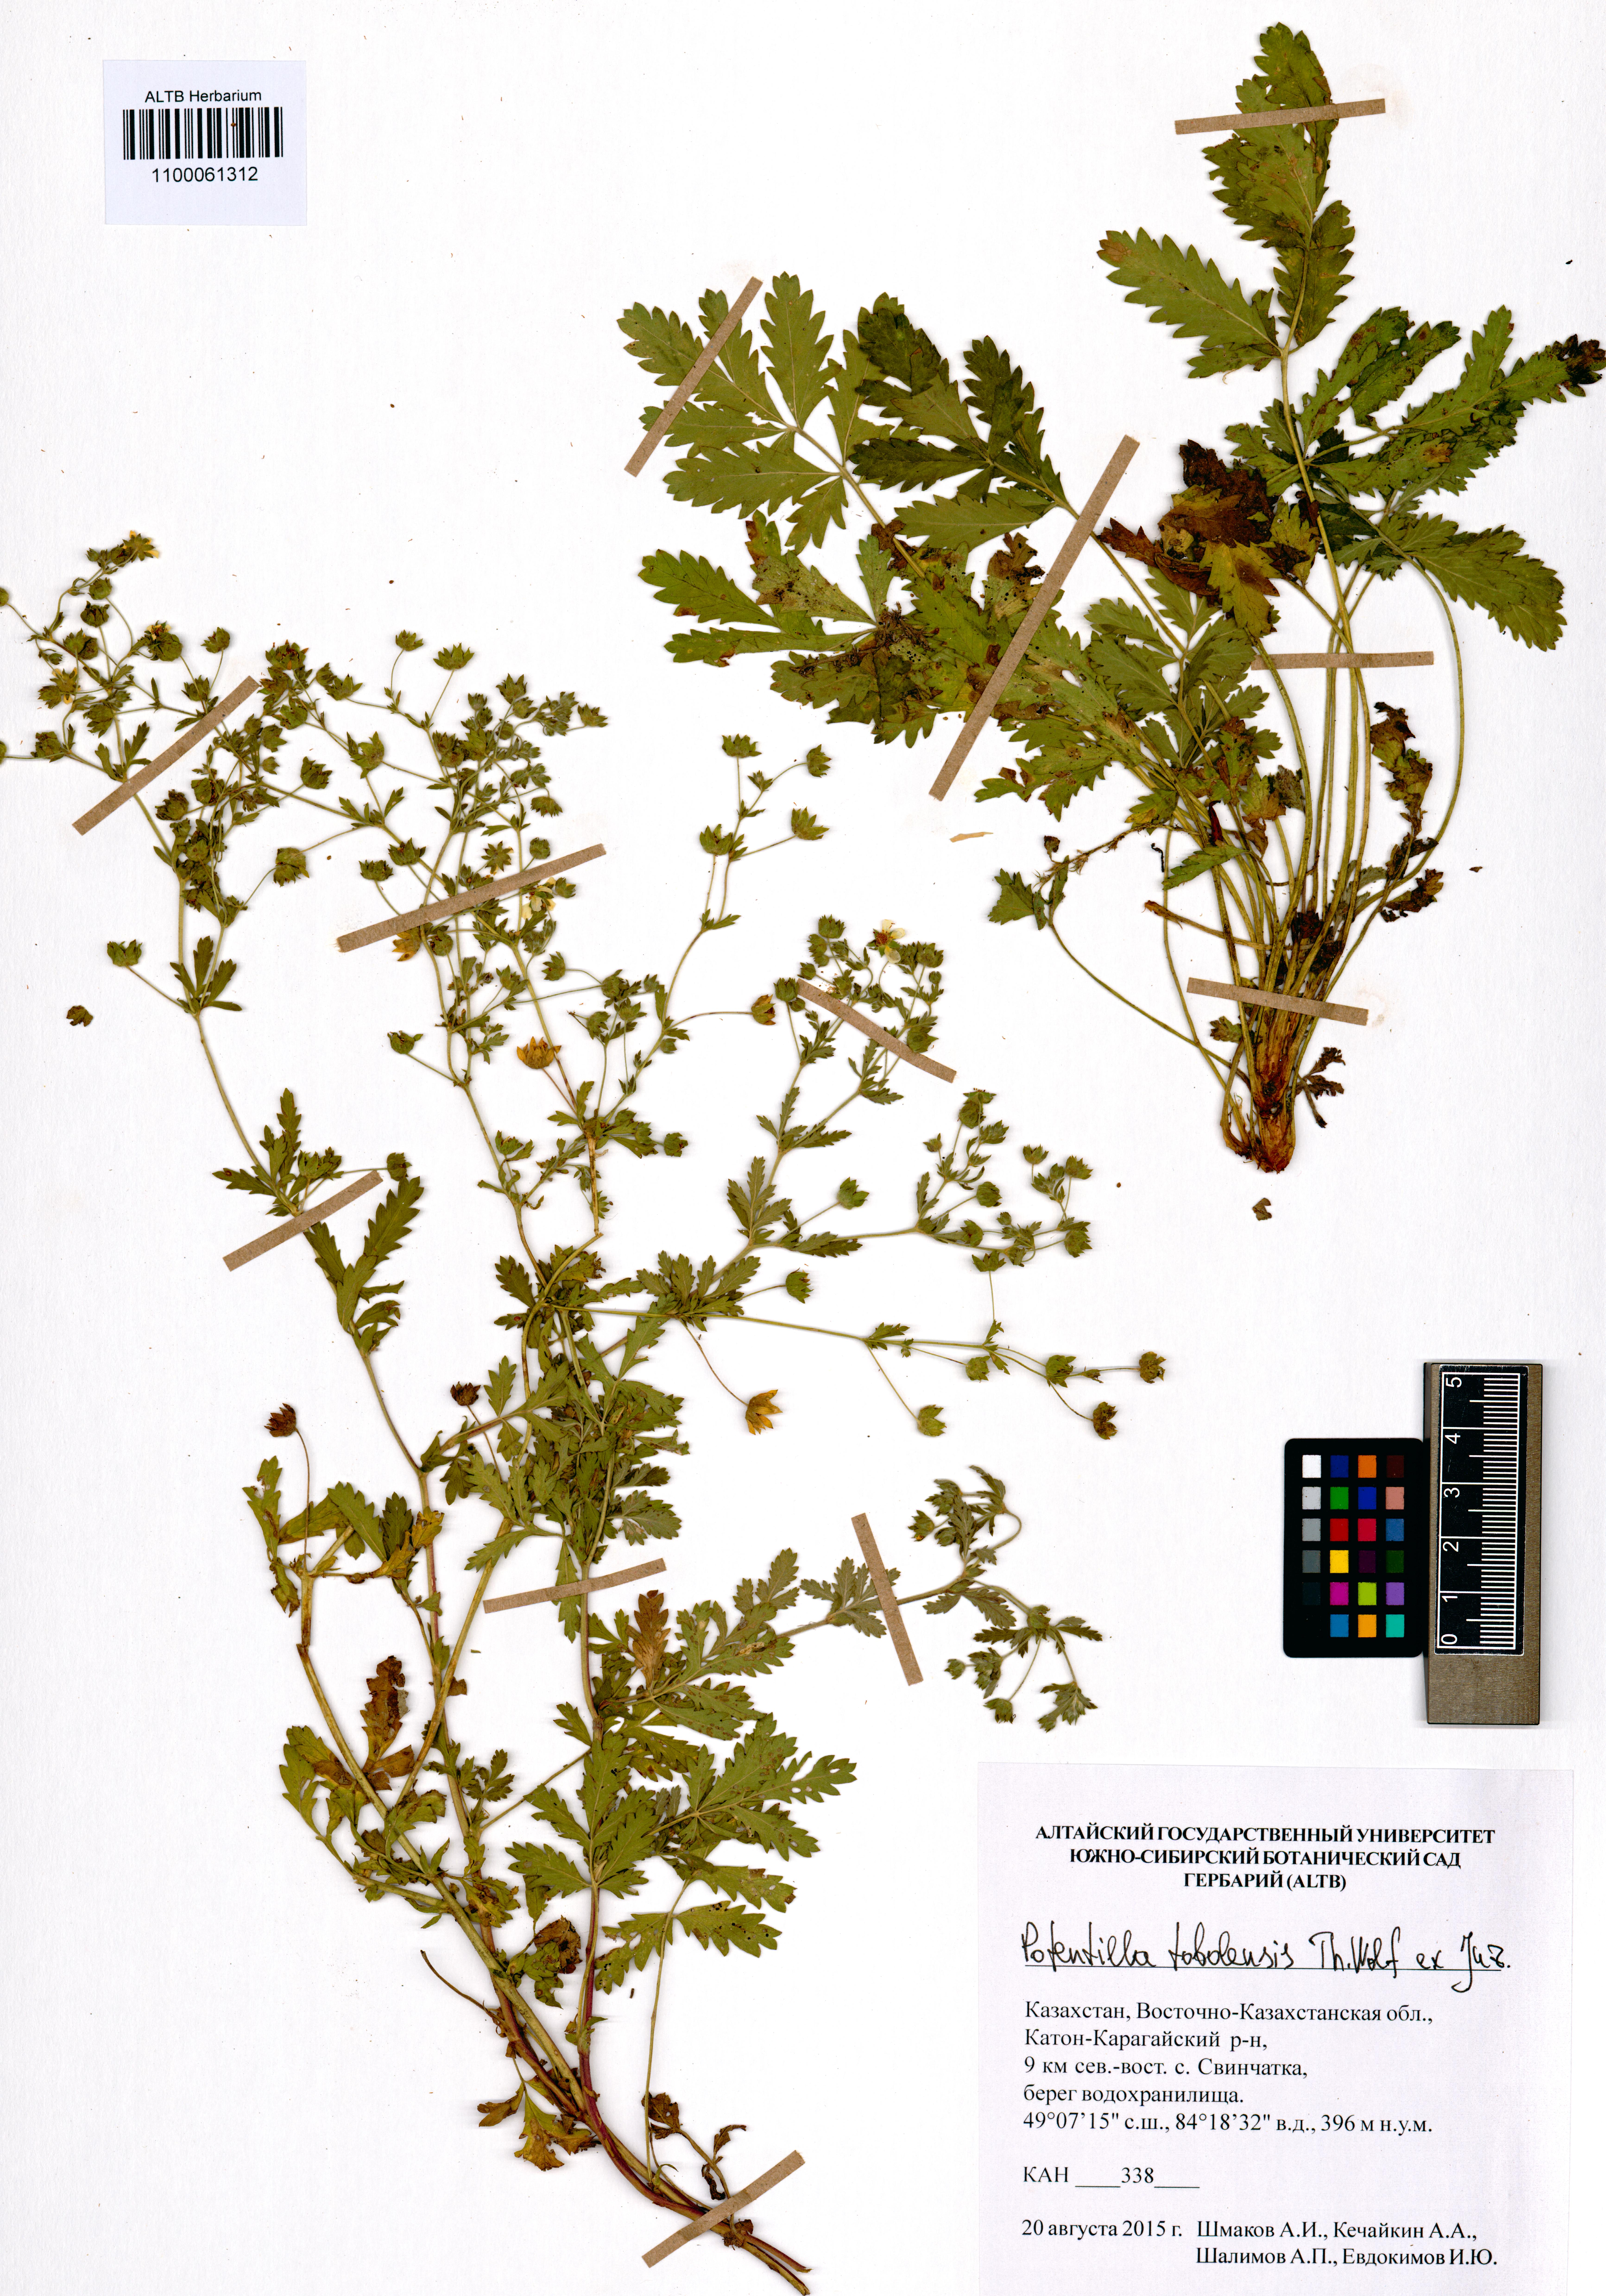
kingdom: Plantae
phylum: Tracheophyta
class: Magnoliopsida
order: Rosales
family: Rosaceae
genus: Potentilla
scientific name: Potentilla tobolensis
